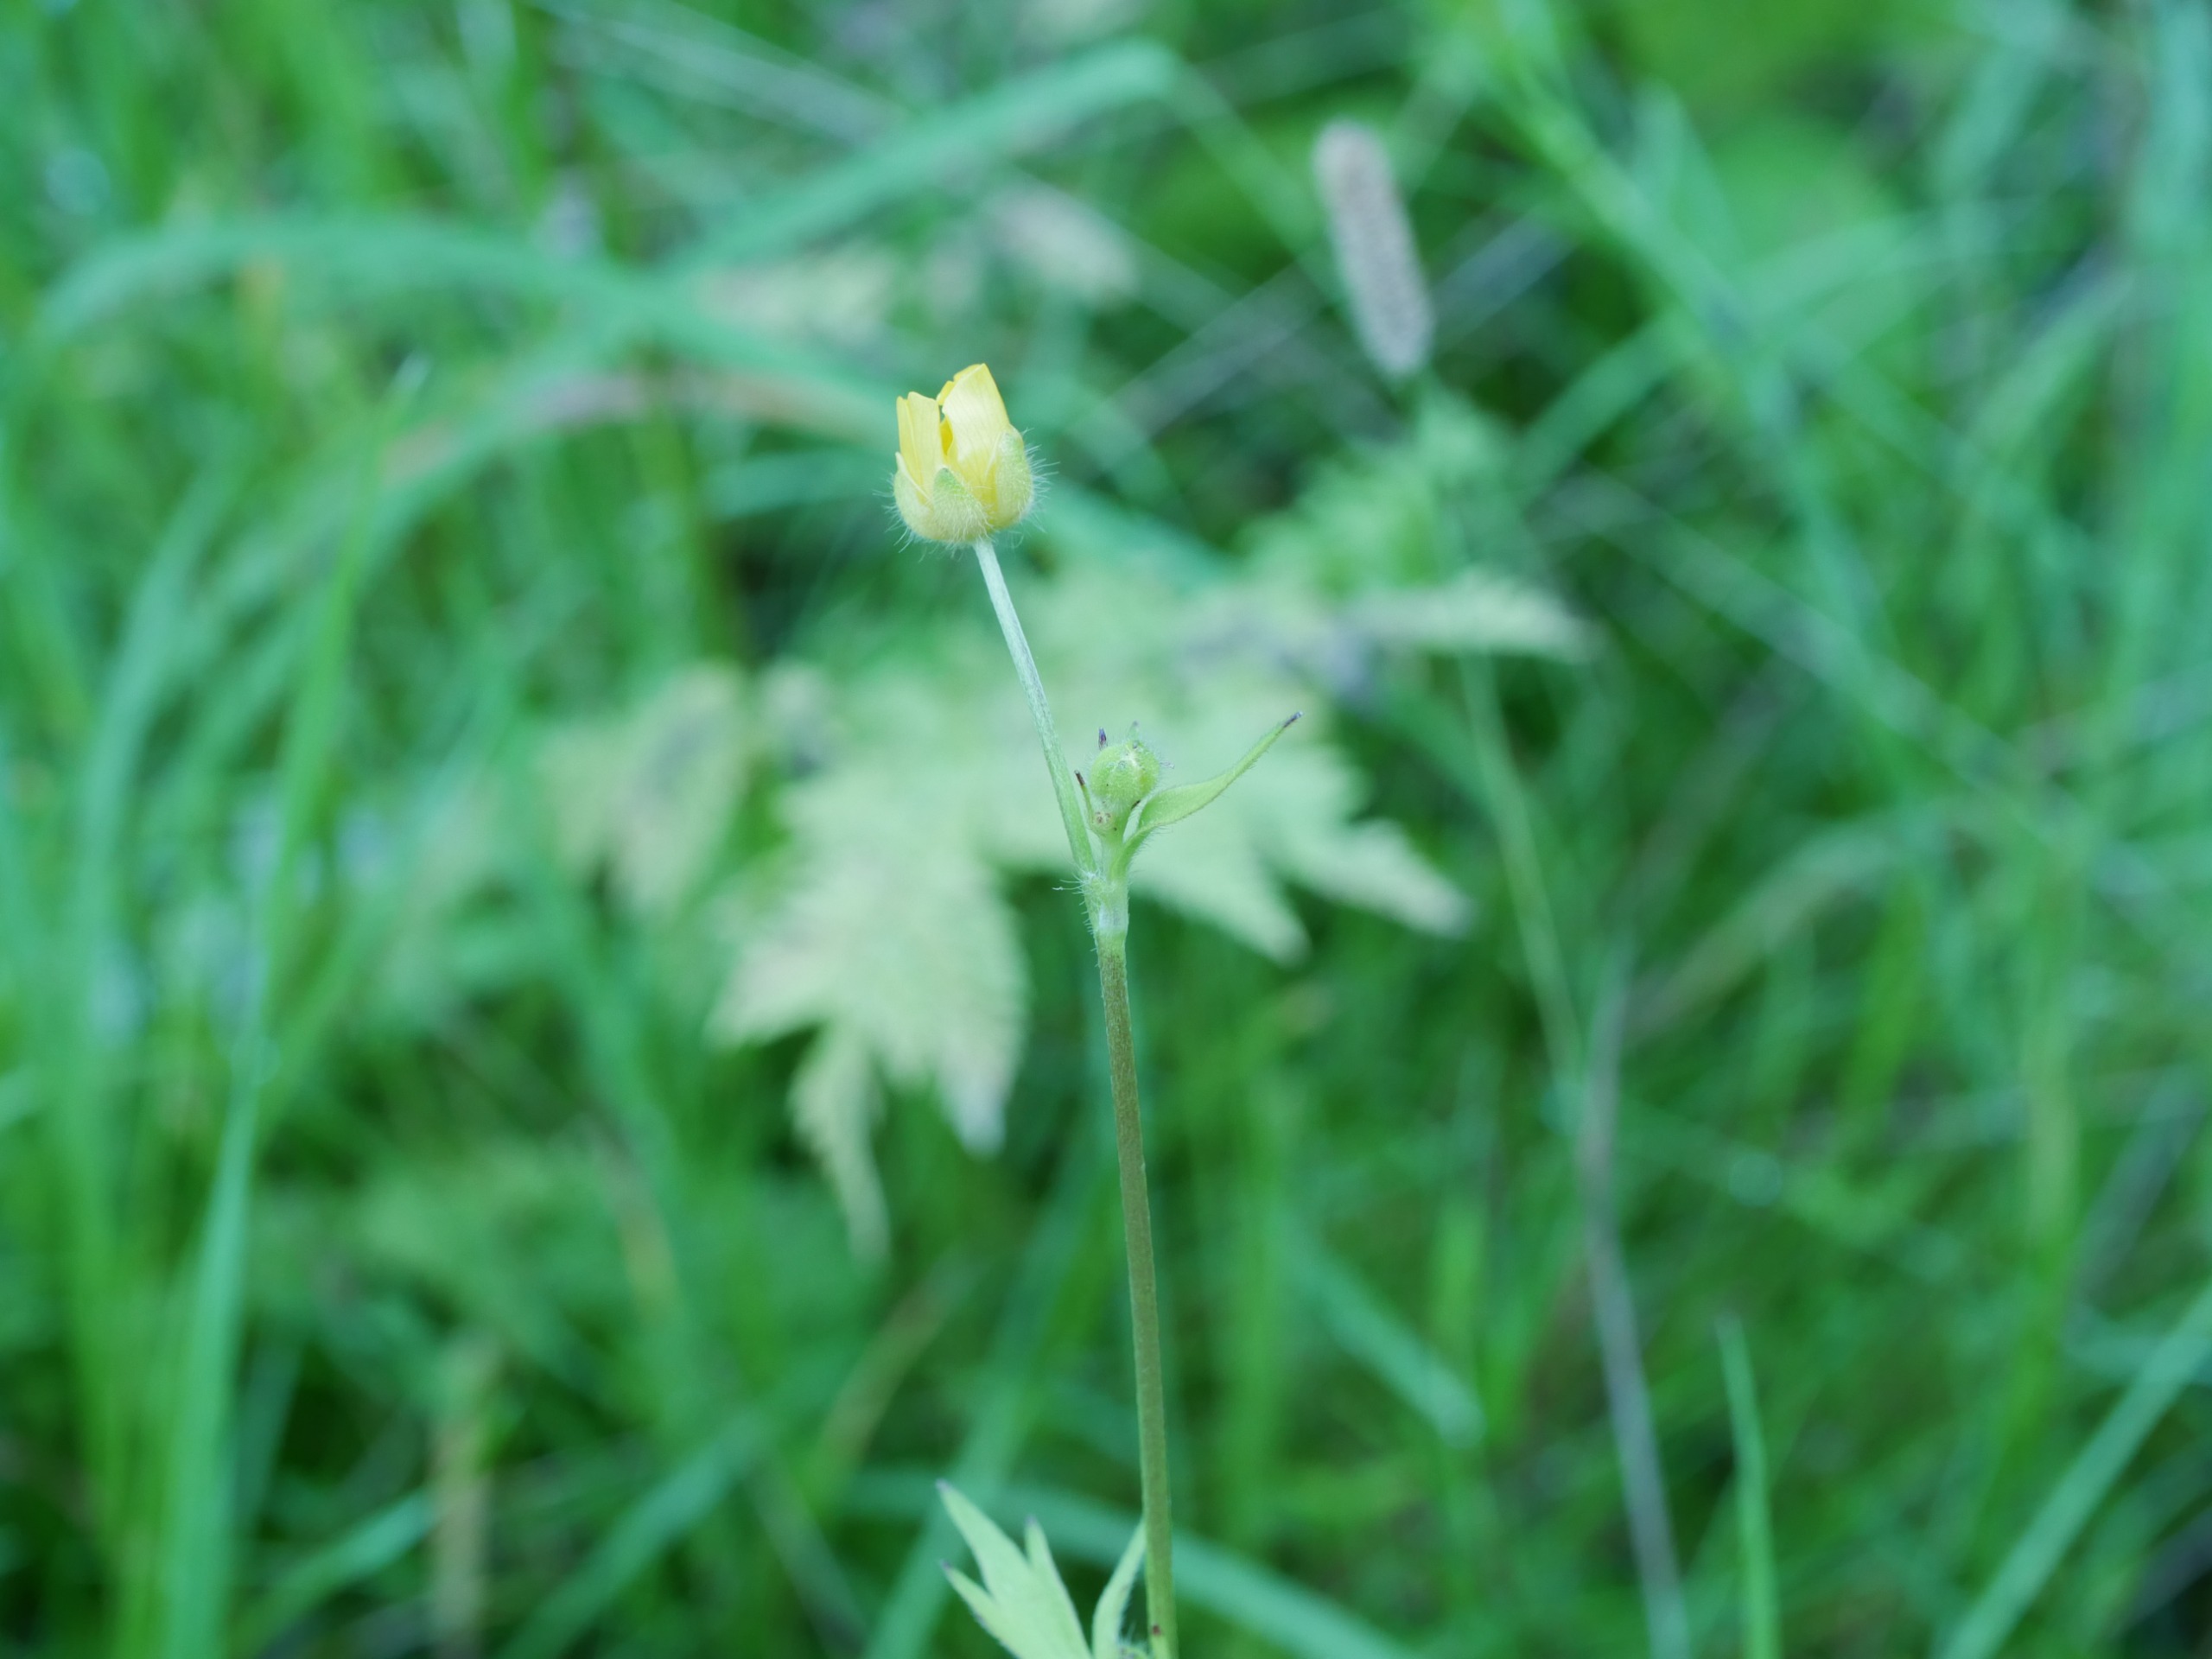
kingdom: Plantae
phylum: Tracheophyta
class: Magnoliopsida
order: Ranunculales
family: Ranunculaceae
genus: Ranunculus
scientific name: Ranunculus
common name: Ranunkelslægten
